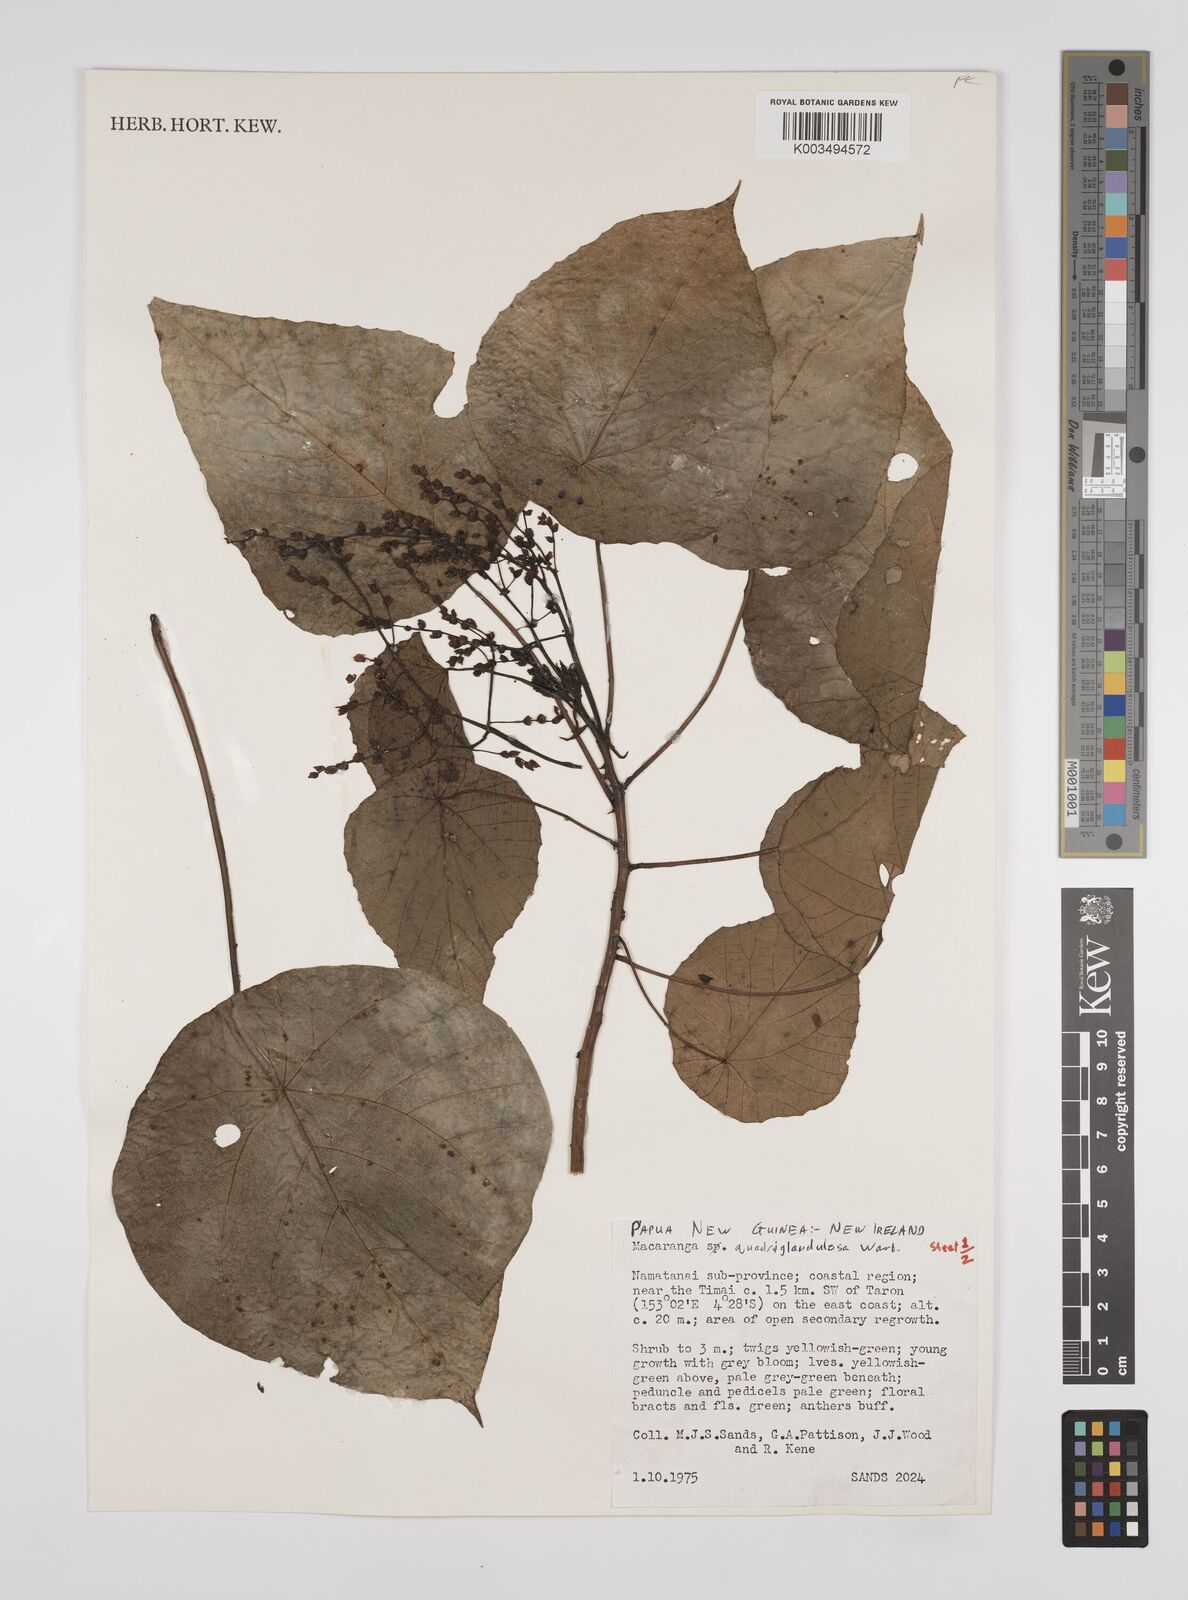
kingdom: Plantae
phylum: Tracheophyta
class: Magnoliopsida
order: Malpighiales
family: Euphorbiaceae
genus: Macaranga
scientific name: Macaranga quadriglandulosa
